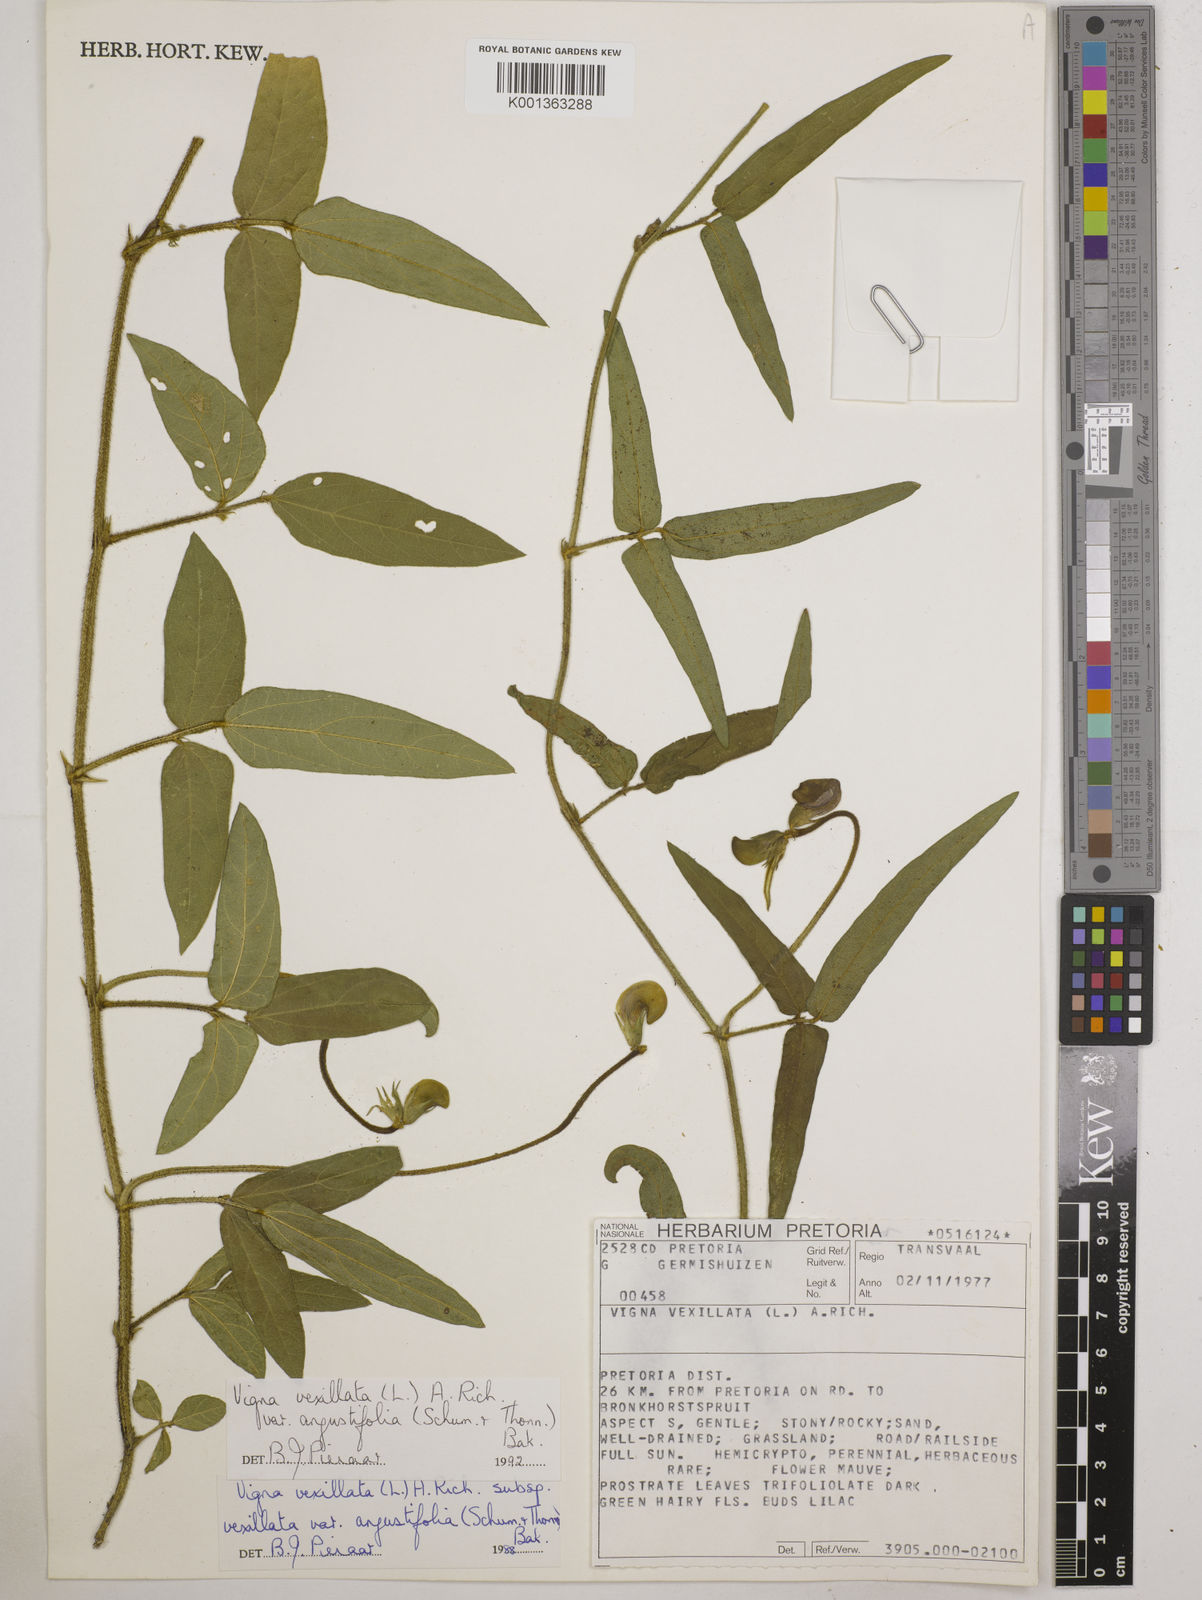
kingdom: Plantae
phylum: Tracheophyta
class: Magnoliopsida
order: Fabales
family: Fabaceae
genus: Vigna
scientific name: Vigna vexillata
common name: Zombi pea
